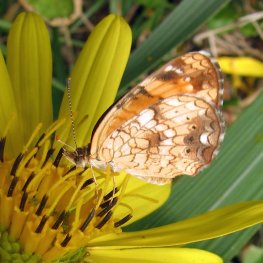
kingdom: Animalia
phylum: Arthropoda
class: Insecta
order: Lepidoptera
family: Nymphalidae
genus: Phyciodes
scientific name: Phyciodes tharos
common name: Northern Crescent
